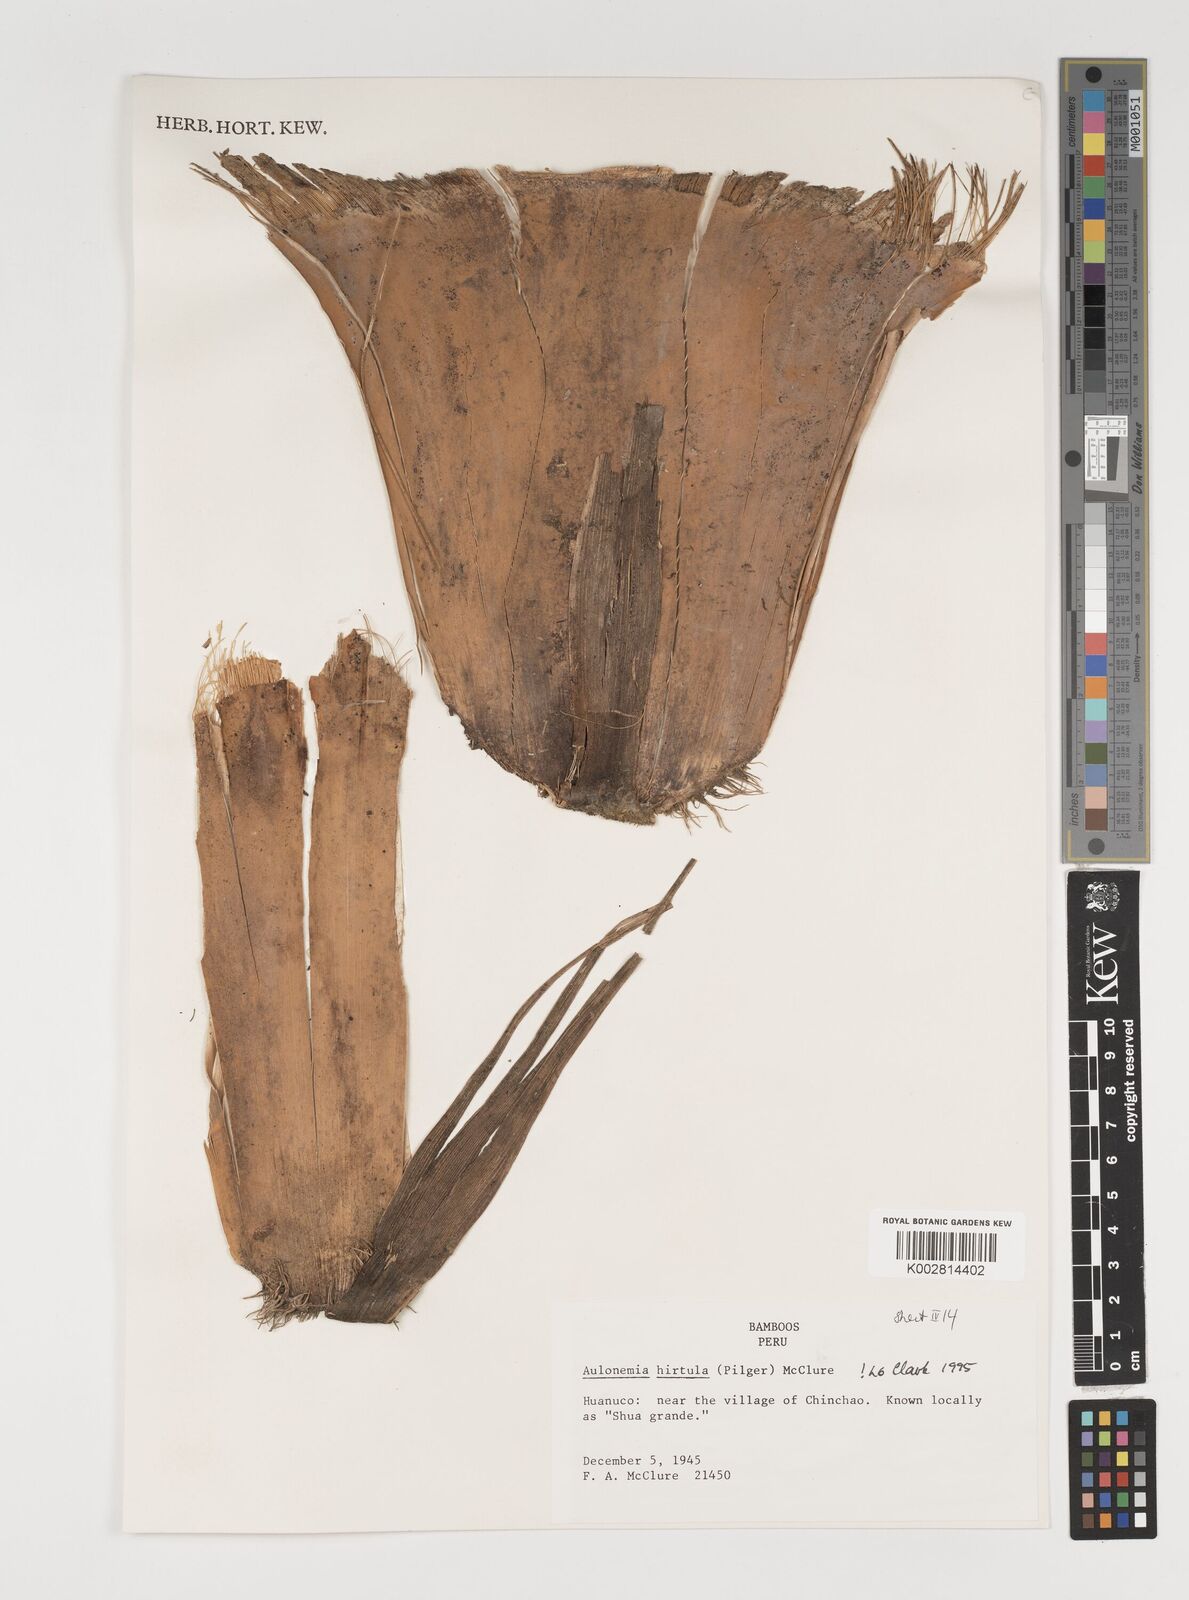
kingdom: Plantae
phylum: Tracheophyta
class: Liliopsida
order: Poales
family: Poaceae
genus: Aulonemia
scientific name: Aulonemia hirtula
